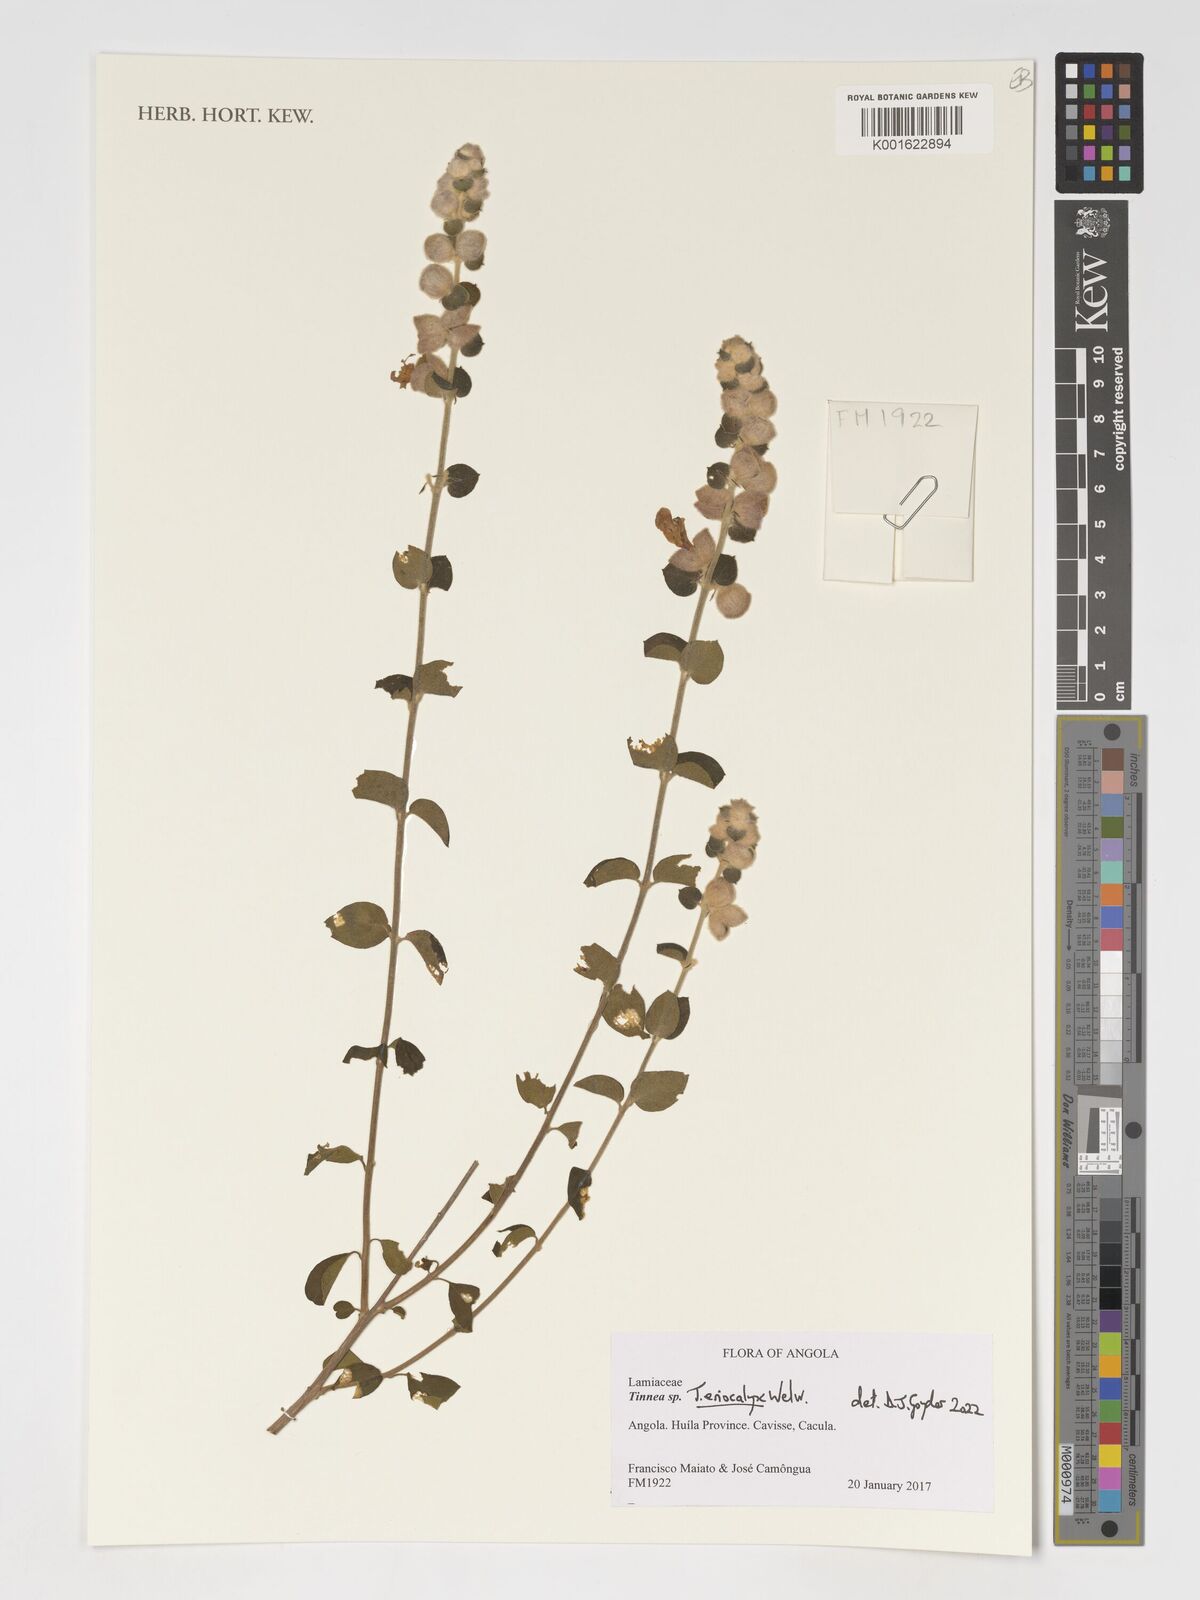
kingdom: Plantae
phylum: Tracheophyta
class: Magnoliopsida
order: Lamiales
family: Lamiaceae
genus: Tinnea
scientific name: Tinnea eriocalyx
